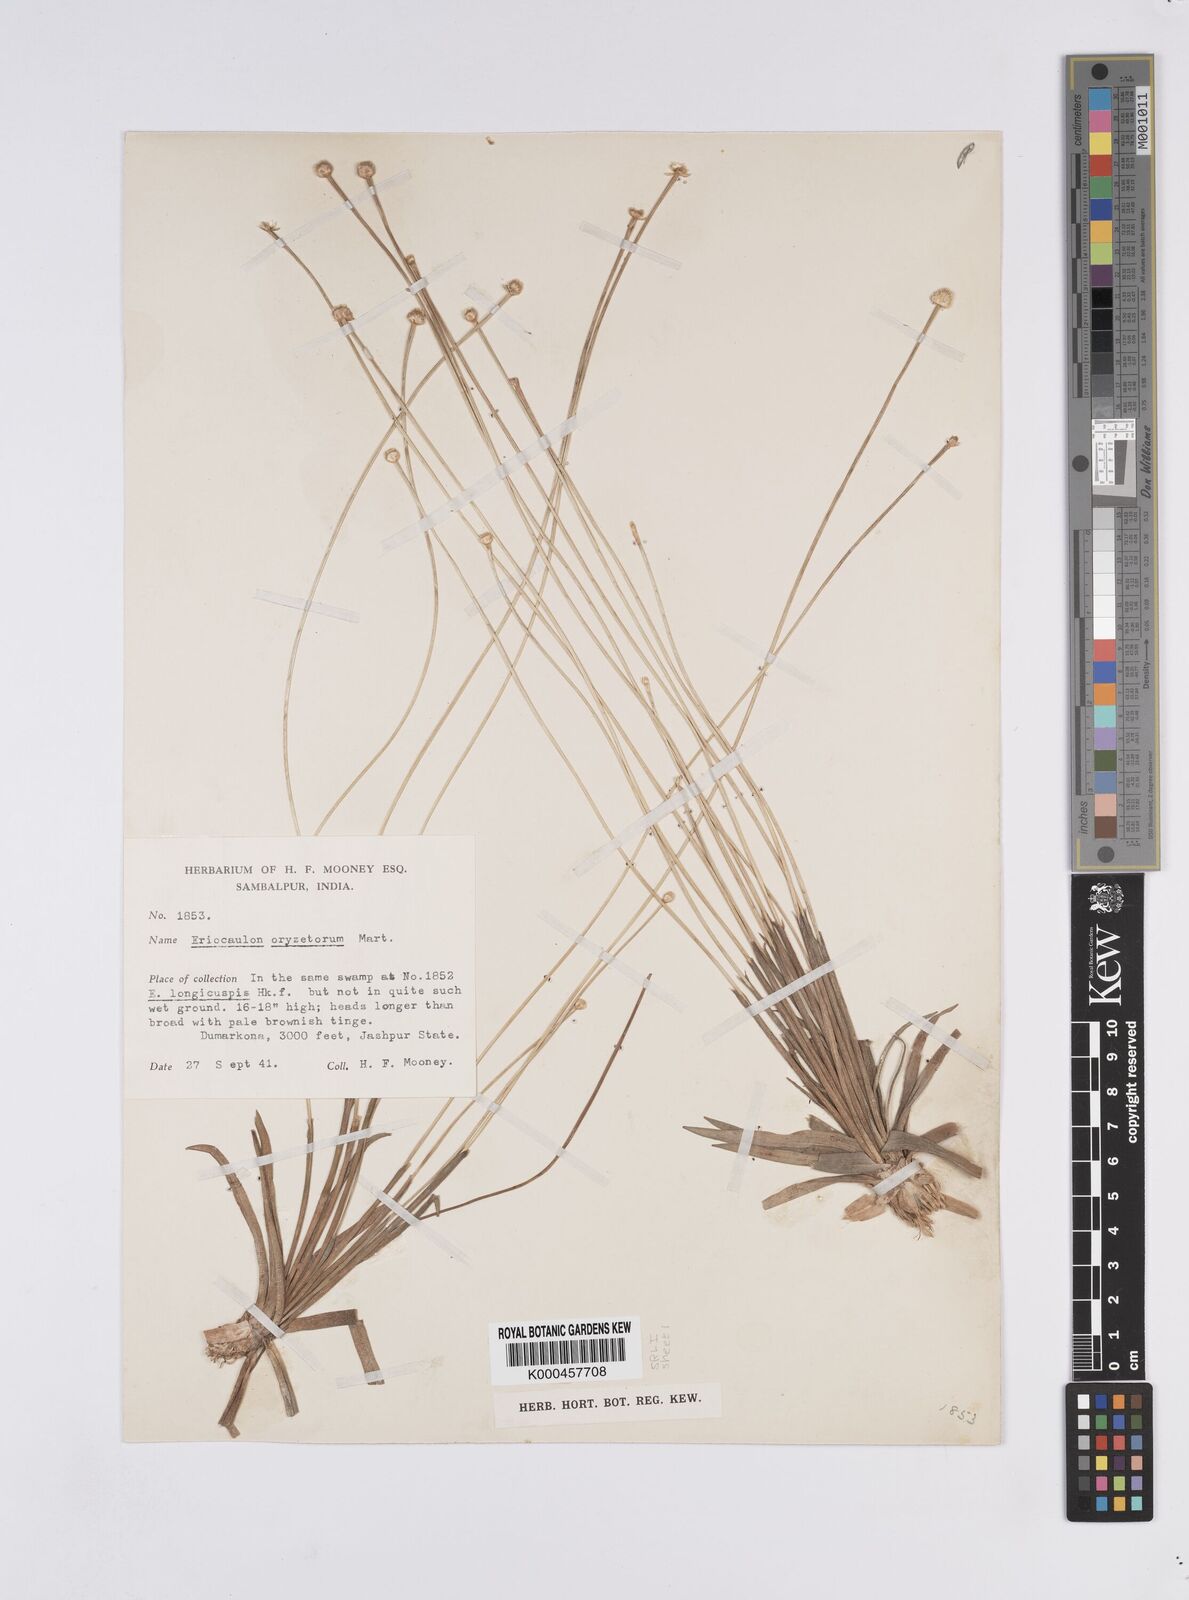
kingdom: Plantae
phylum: Tracheophyta
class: Liliopsida
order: Poales
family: Eriocaulaceae
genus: Eriocaulon
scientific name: Eriocaulon oryzetorum
